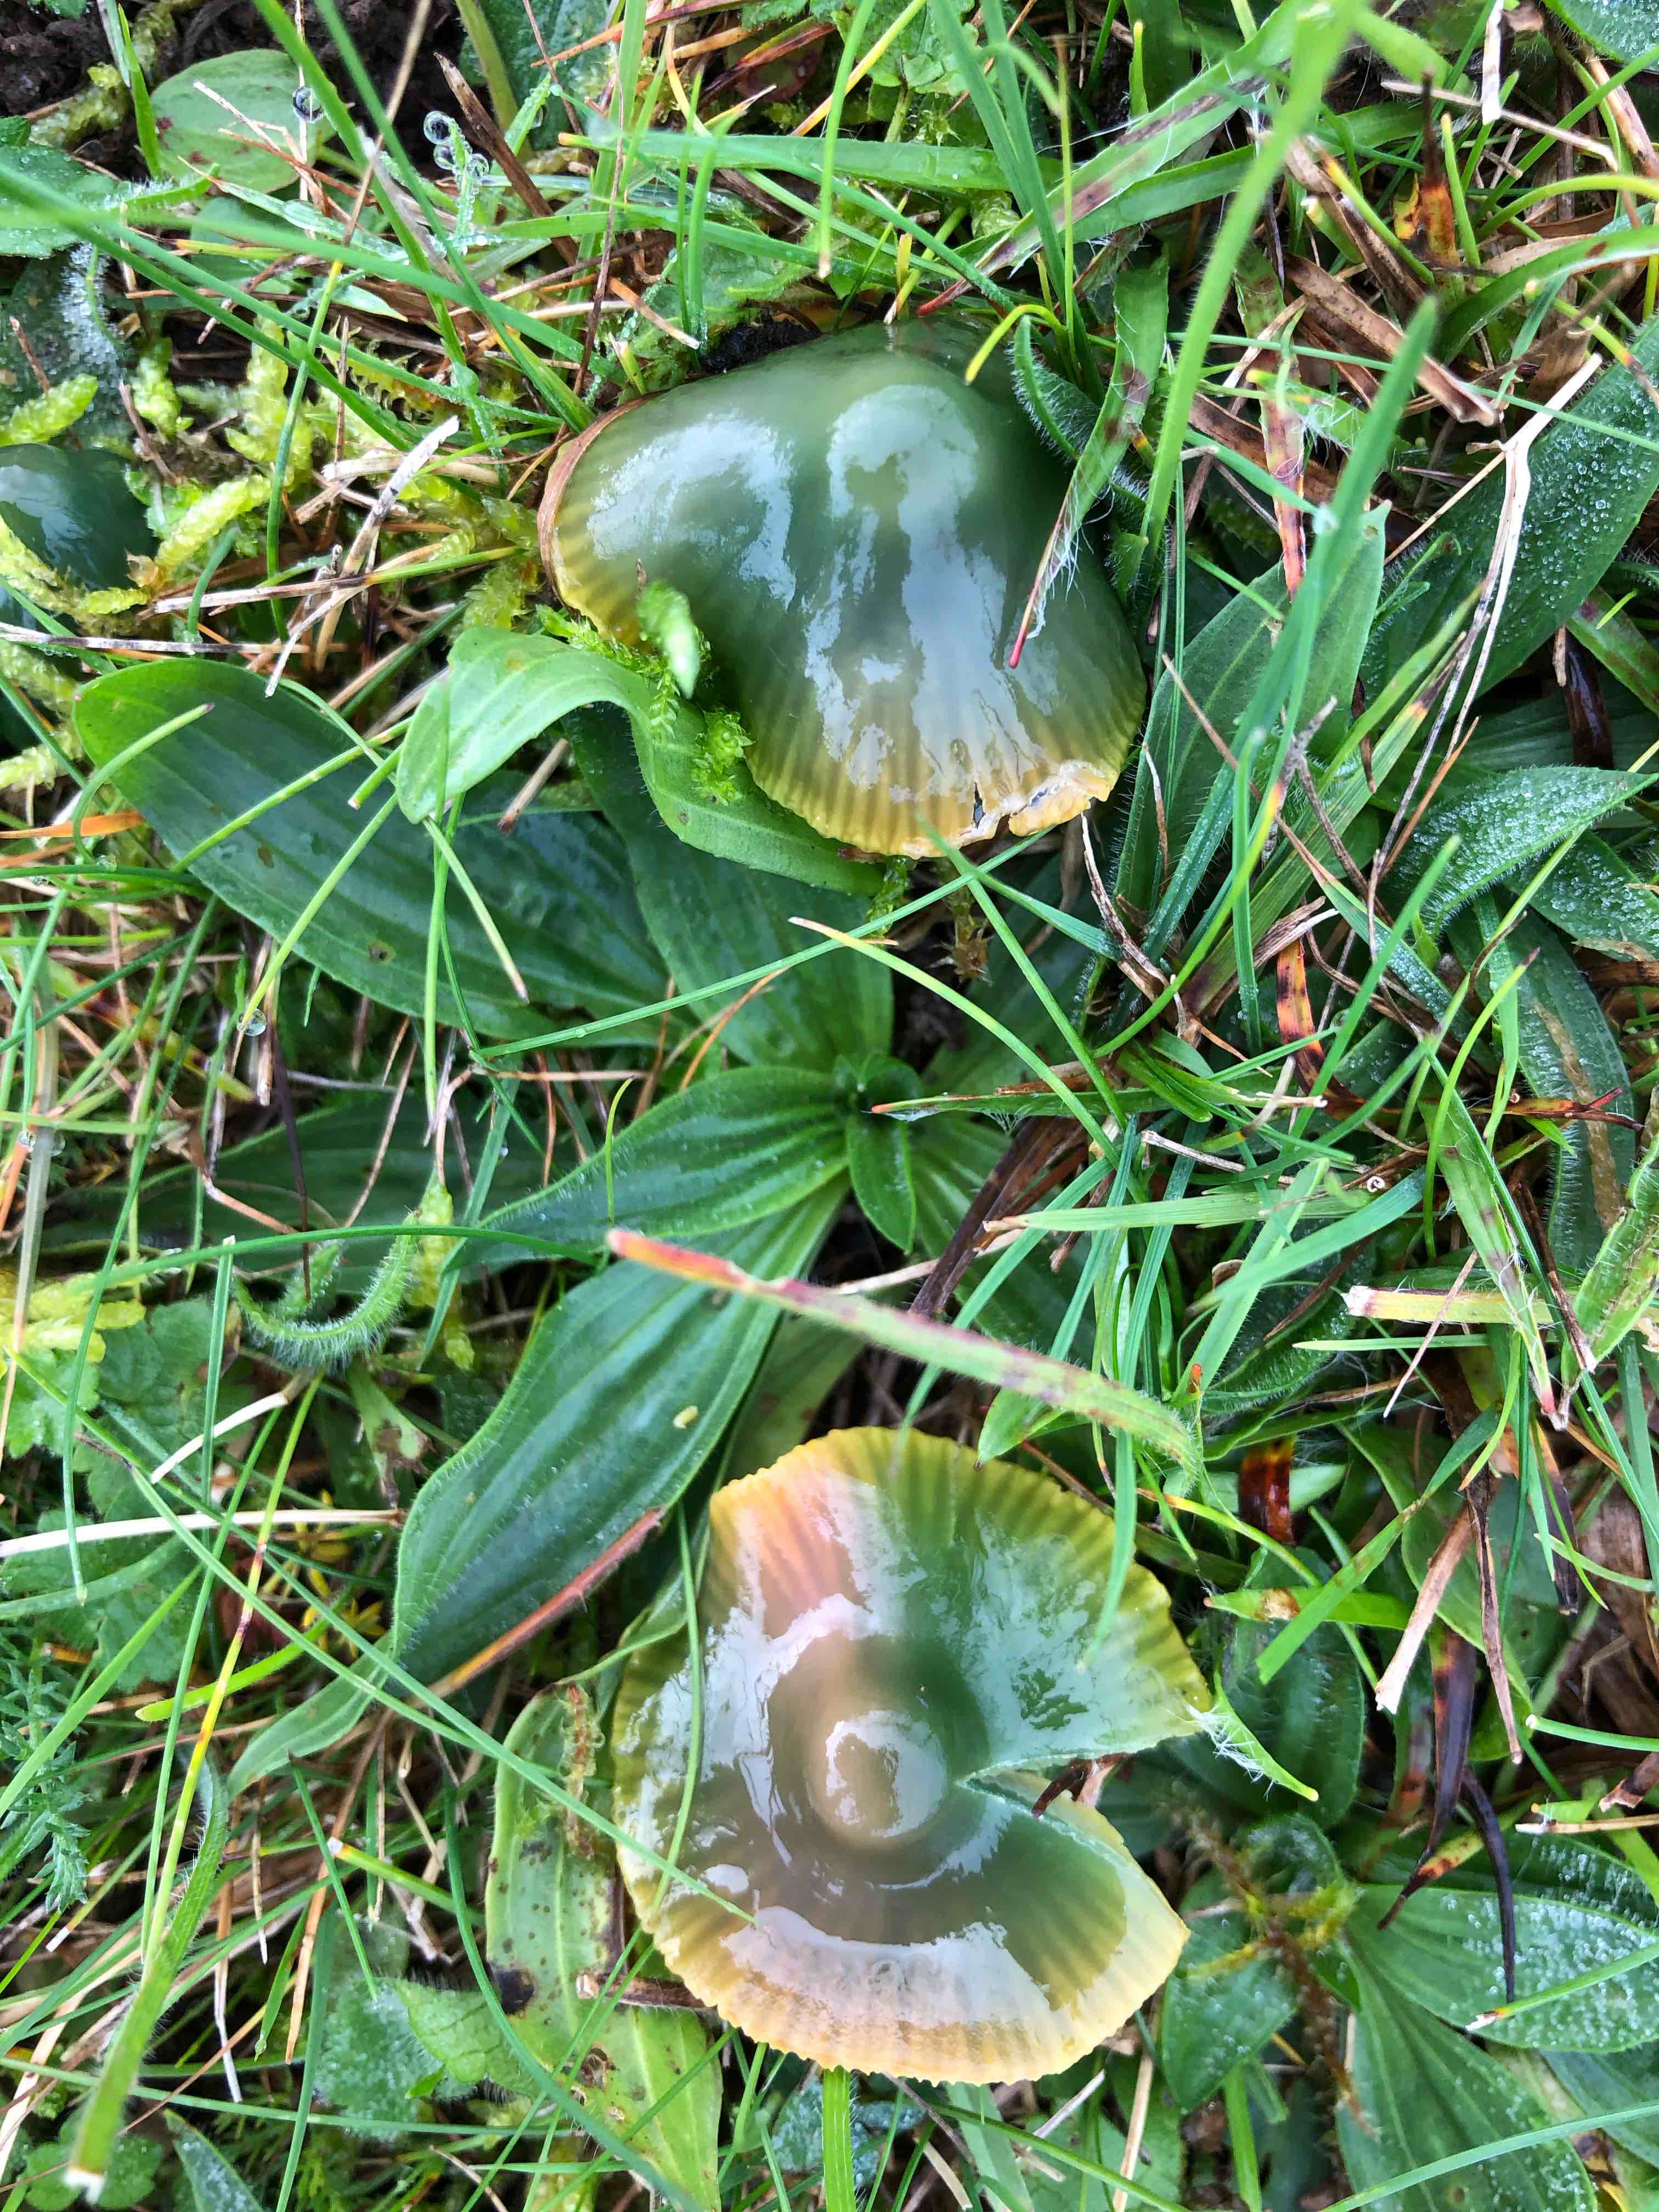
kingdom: Fungi
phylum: Basidiomycota
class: Agaricomycetes
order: Agaricales
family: Hygrophoraceae
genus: Gliophorus
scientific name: Gliophorus psittacinus
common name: papegøje-vokshat
